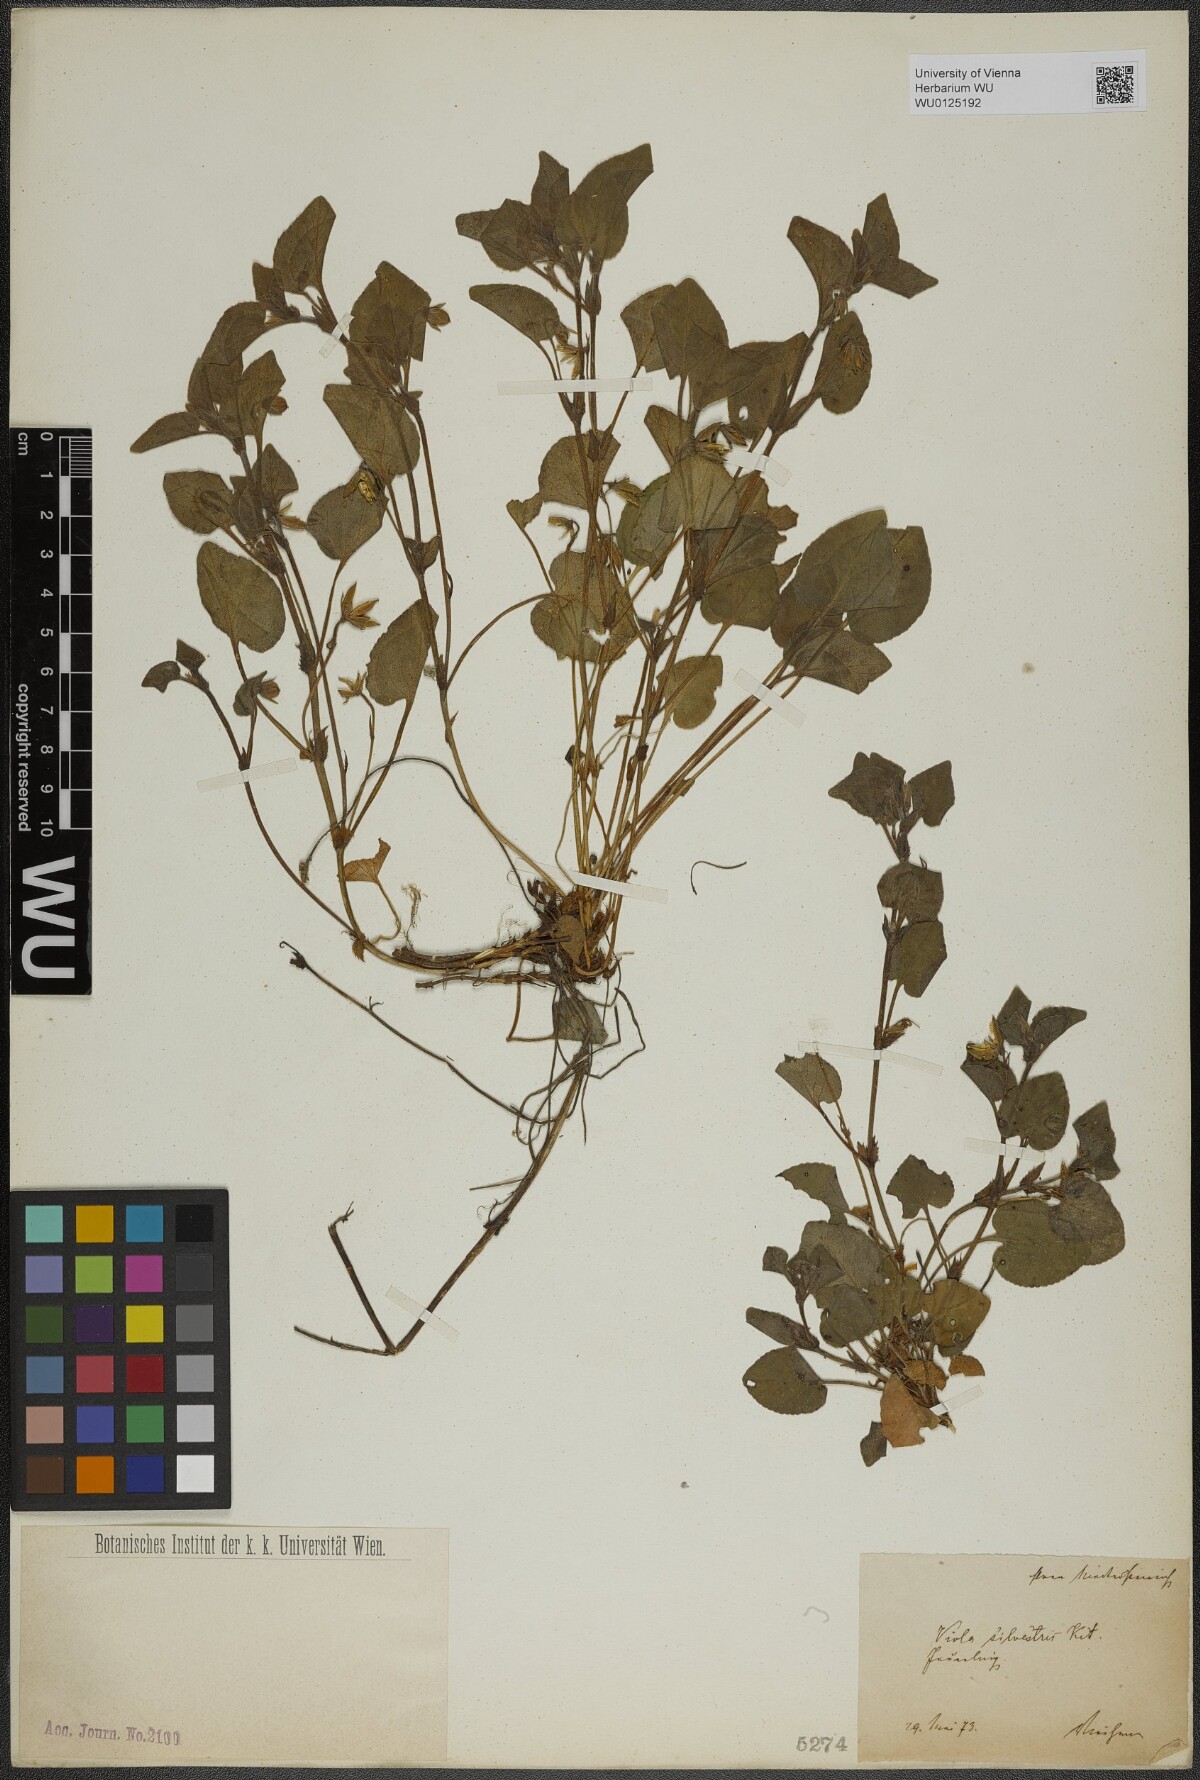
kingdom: Plantae
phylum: Tracheophyta
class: Magnoliopsida
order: Malpighiales
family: Violaceae
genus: Viola
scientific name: Viola reichenbachiana
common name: Early dog-violet
